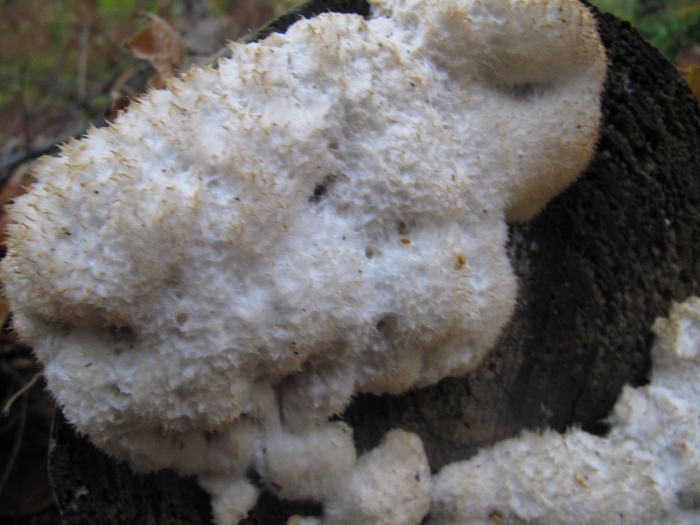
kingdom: Fungi
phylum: Basidiomycota
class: Agaricomycetes
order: Polyporales
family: Dacryobolaceae
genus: Postia
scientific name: Postia ptychogaster
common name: støvende kødporesvamp
